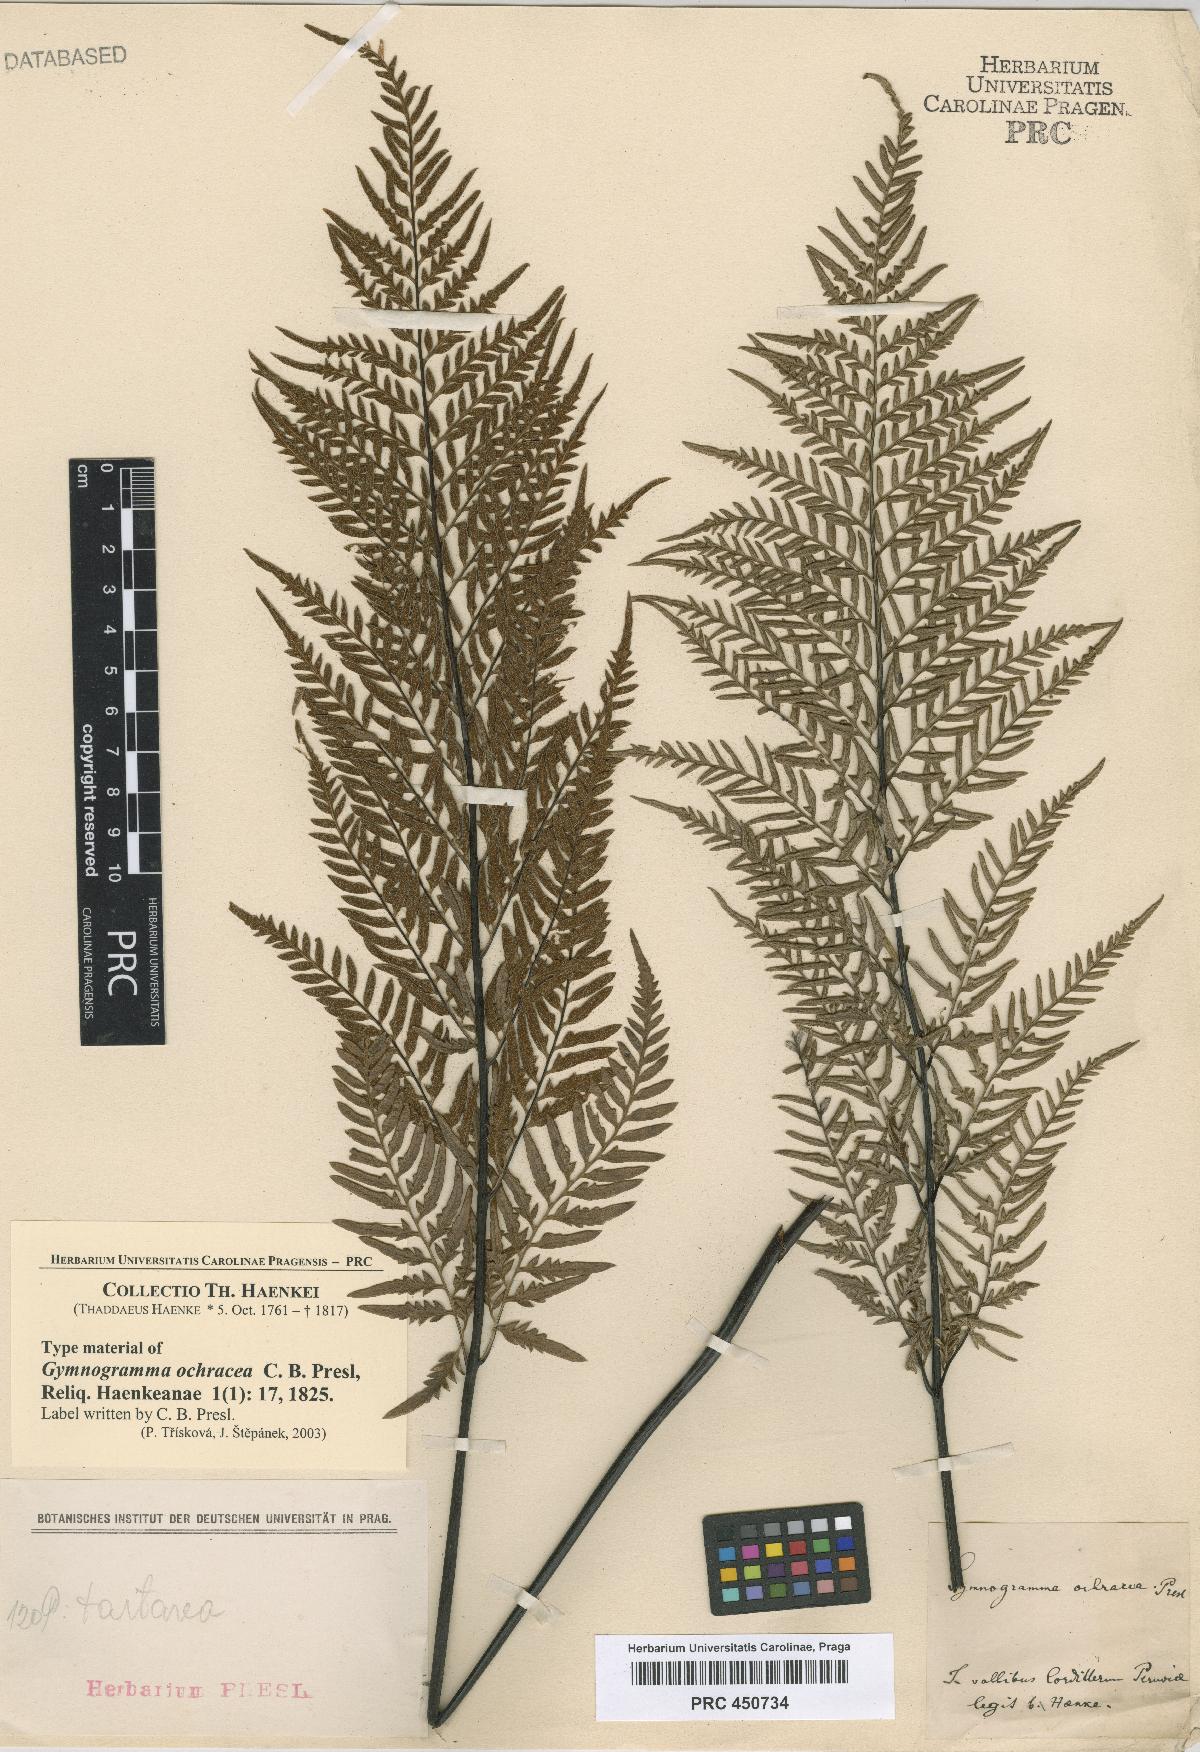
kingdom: Plantae
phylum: Tracheophyta
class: Polypodiopsida
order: Polypodiales
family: Pteridaceae
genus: Pityrogramma
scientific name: Pityrogramma ochracea
